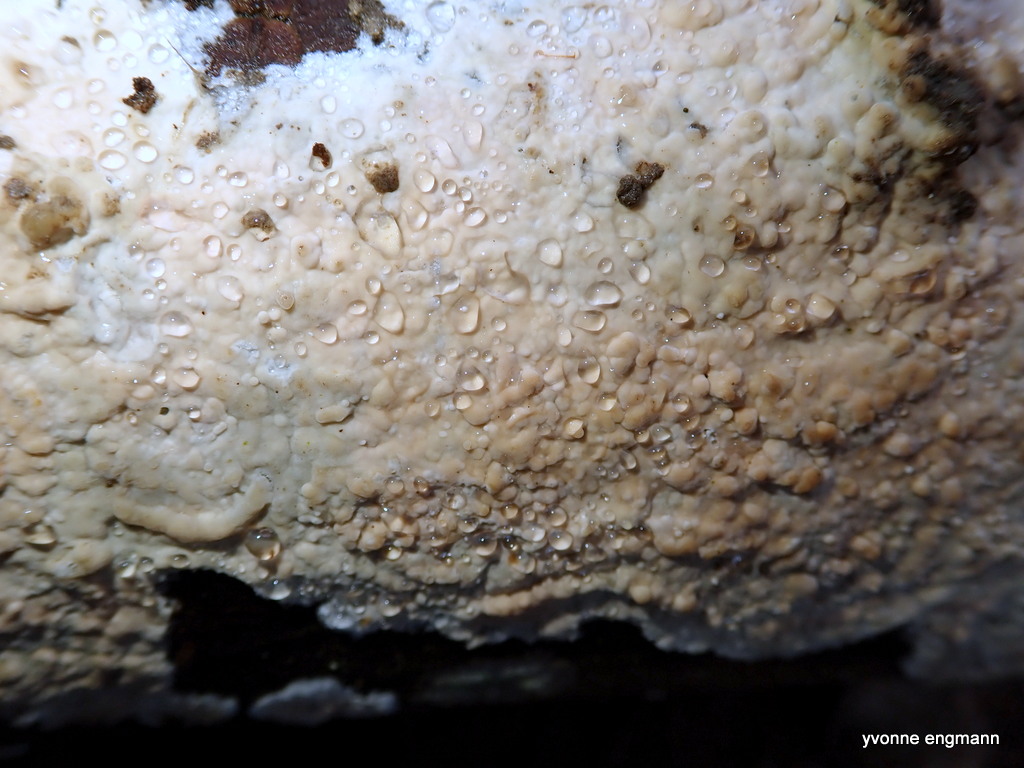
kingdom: Fungi
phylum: Basidiomycota
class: Agaricomycetes
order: Agaricales
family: Physalacriaceae
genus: Cylindrobasidium
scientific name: Cylindrobasidium evolvens
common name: sprækkehinde
